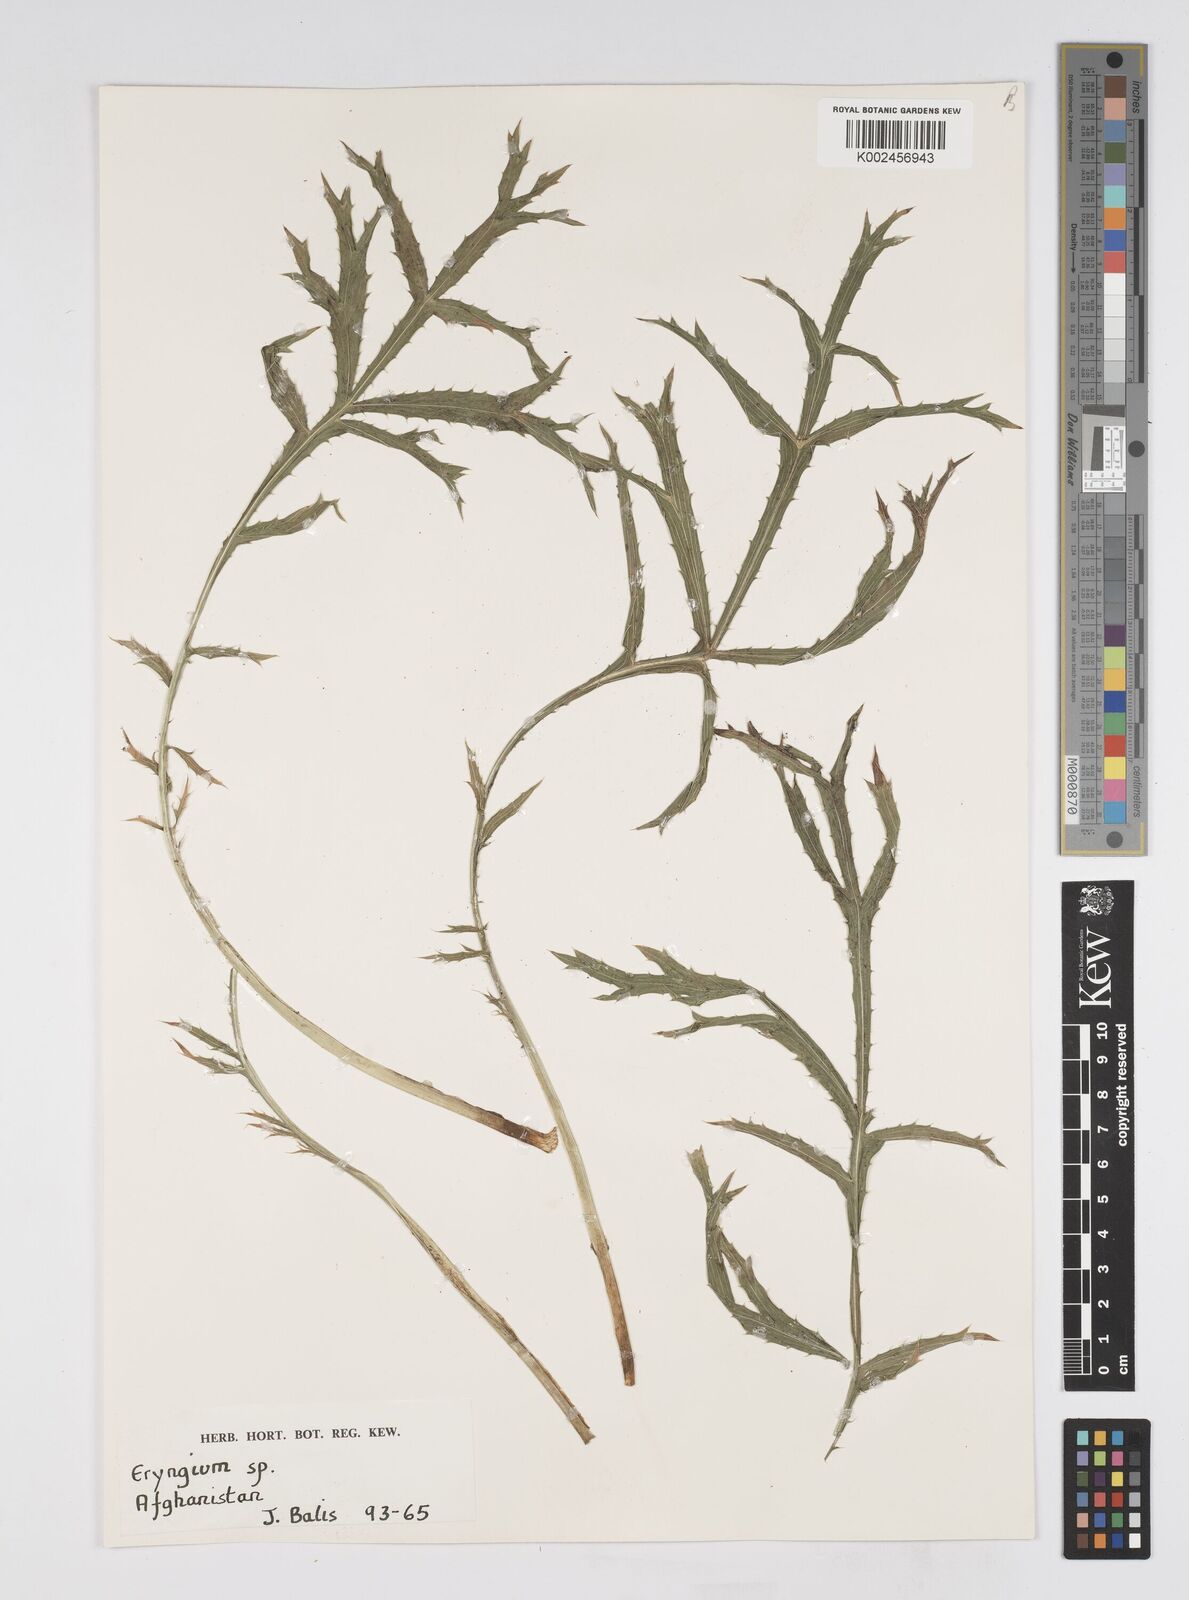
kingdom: Plantae
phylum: Tracheophyta
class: Magnoliopsida
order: Apiales
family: Apiaceae
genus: Eryngium
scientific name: Eryngium
